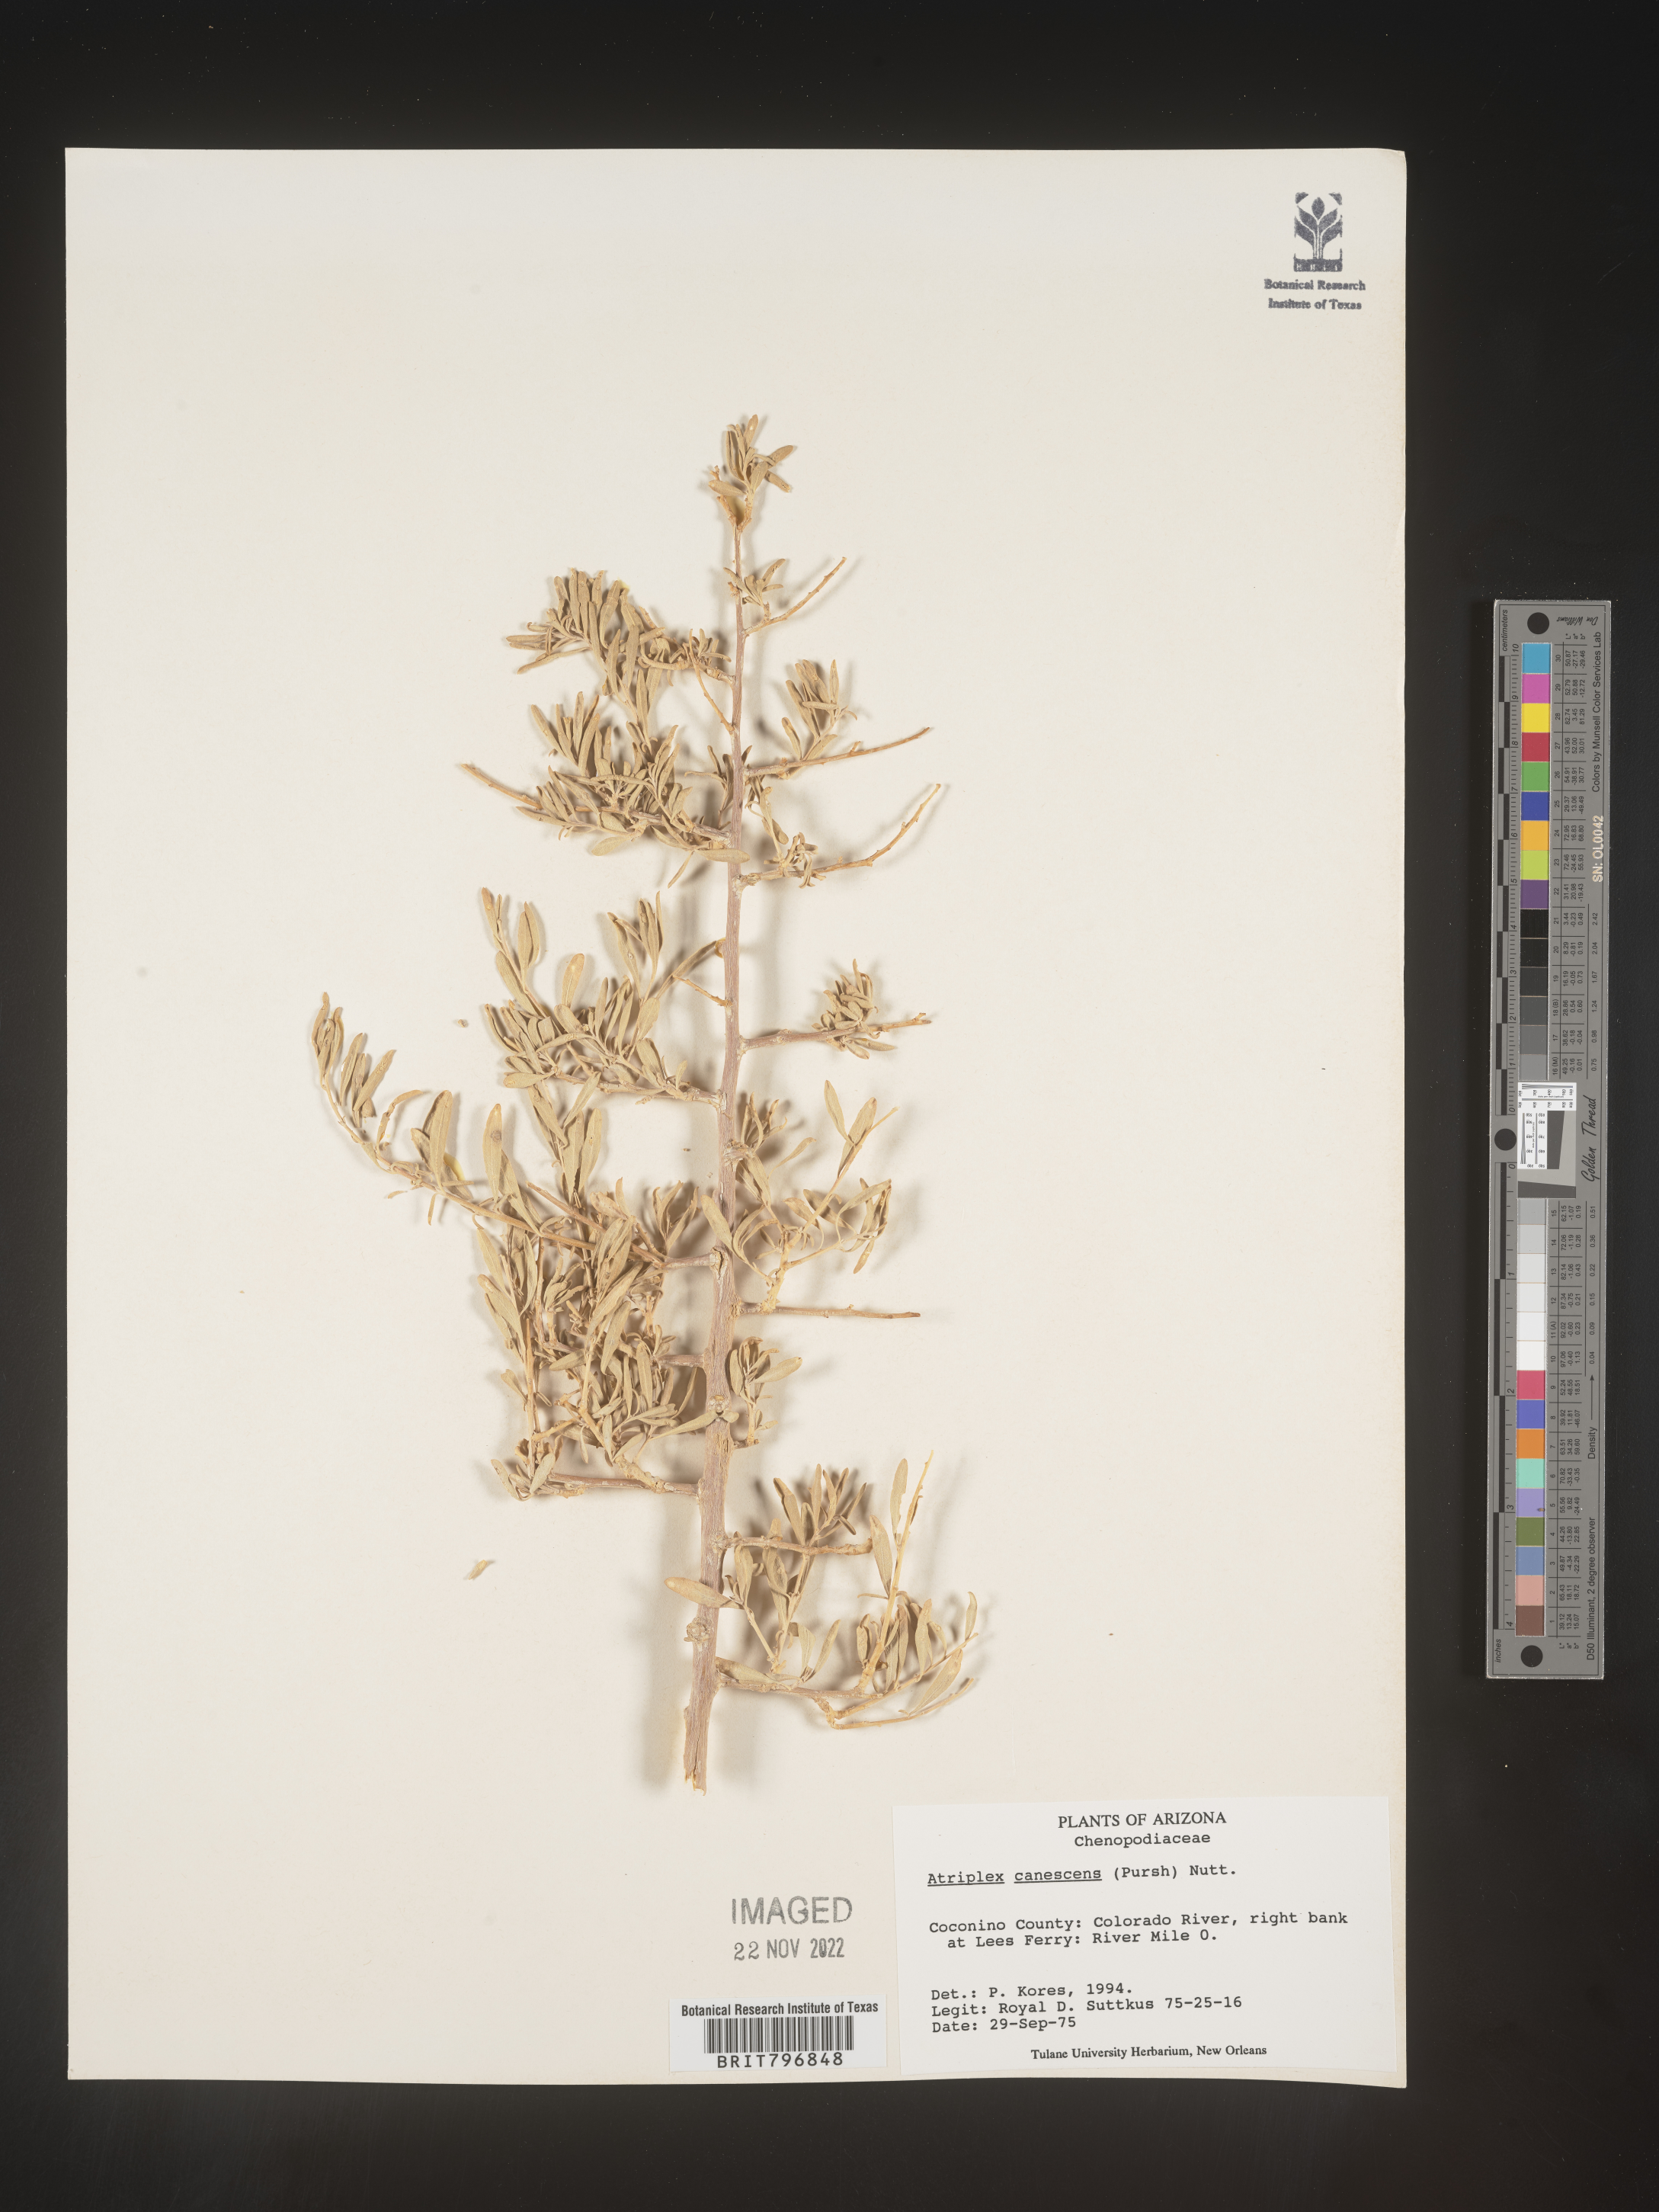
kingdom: Plantae
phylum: Tracheophyta
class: Magnoliopsida
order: Caryophyllales
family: Amaranthaceae
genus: Atriplex
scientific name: Atriplex canescens
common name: Four-wing saltbush
